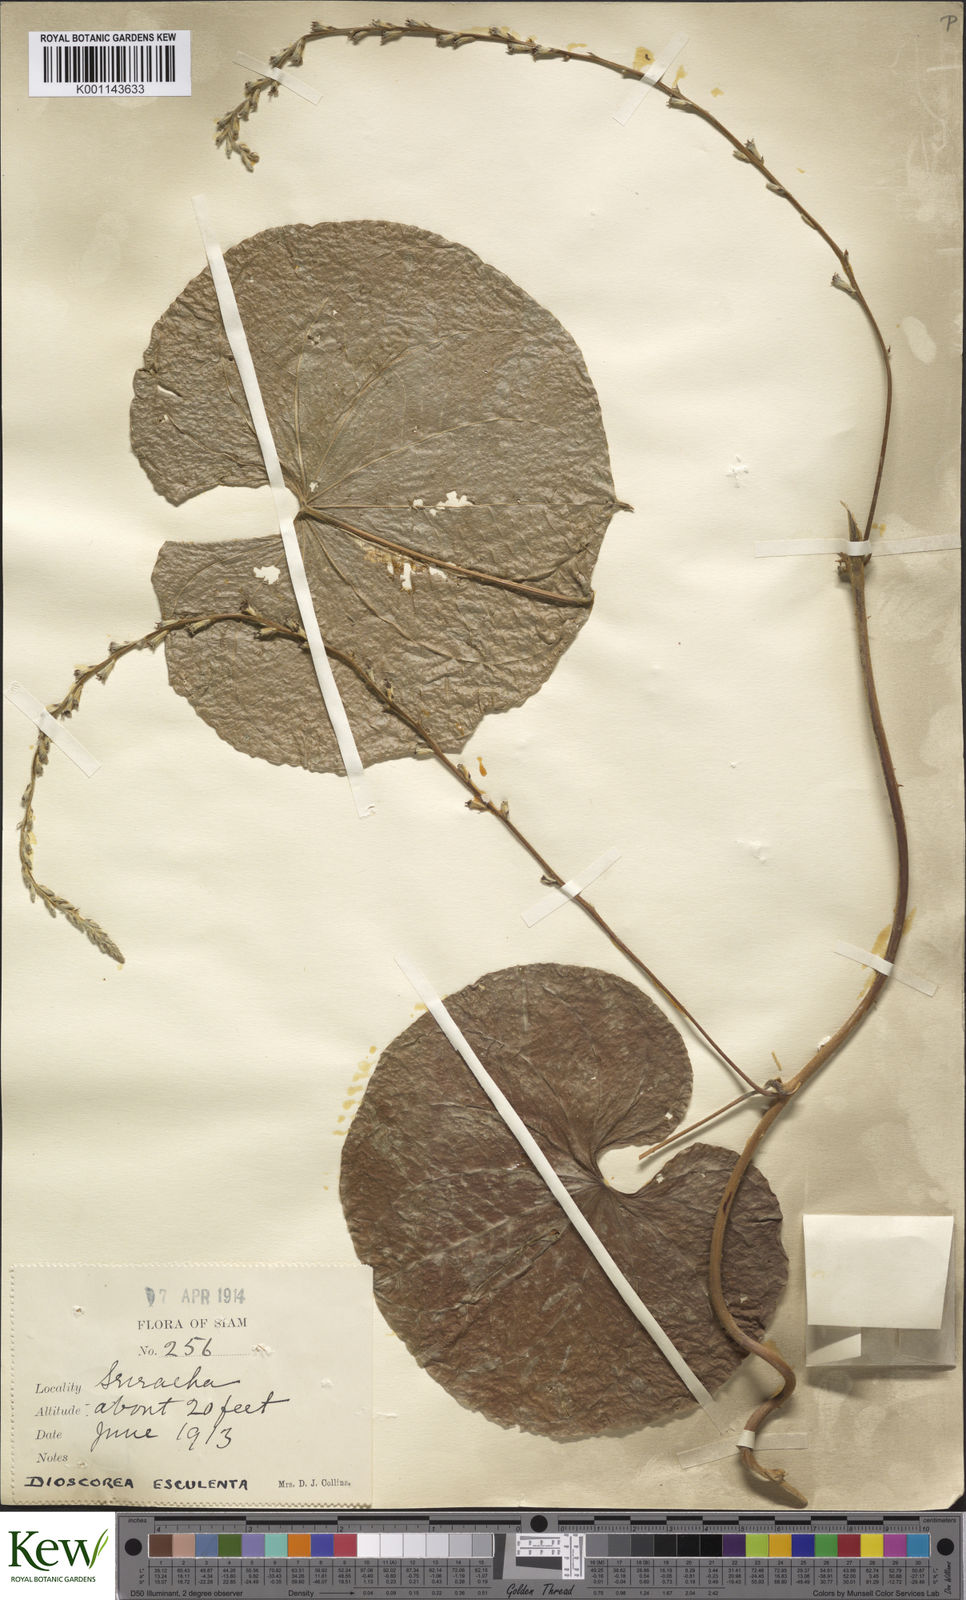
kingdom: Plantae
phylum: Tracheophyta
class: Liliopsida
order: Dioscoreales
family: Dioscoreaceae
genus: Dioscorea
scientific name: Dioscorea esculenta
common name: Chinese yam
